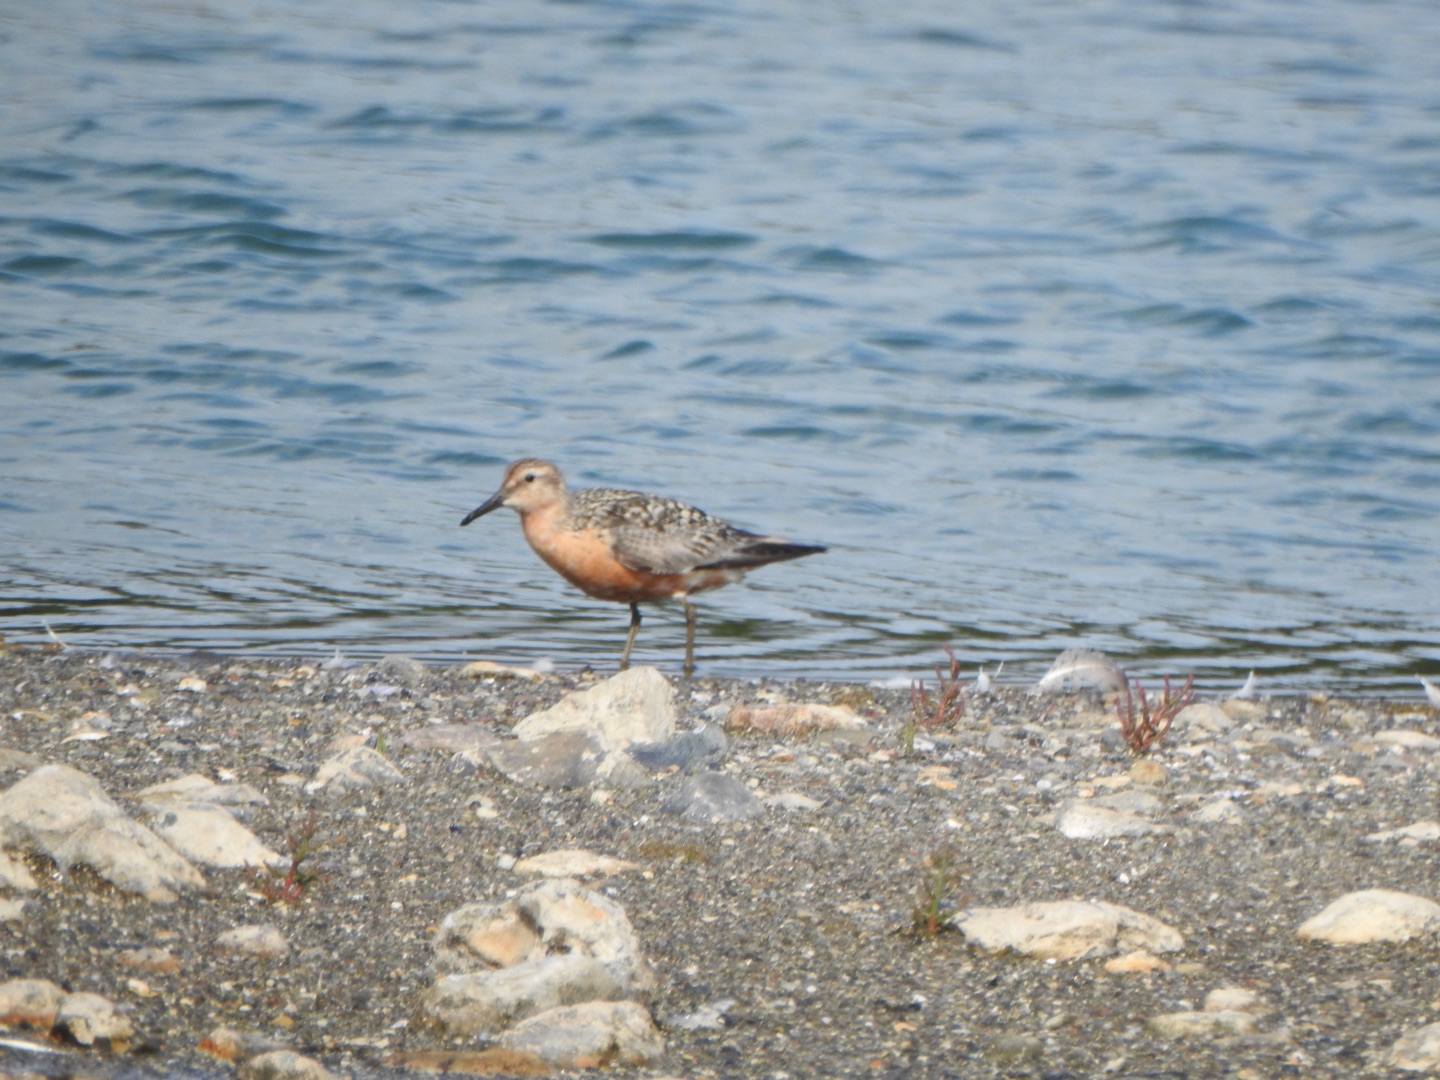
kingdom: Animalia
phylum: Chordata
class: Aves
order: Charadriiformes
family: Scolopacidae
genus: Calidris
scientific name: Calidris canutus
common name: Islandsk ryle
